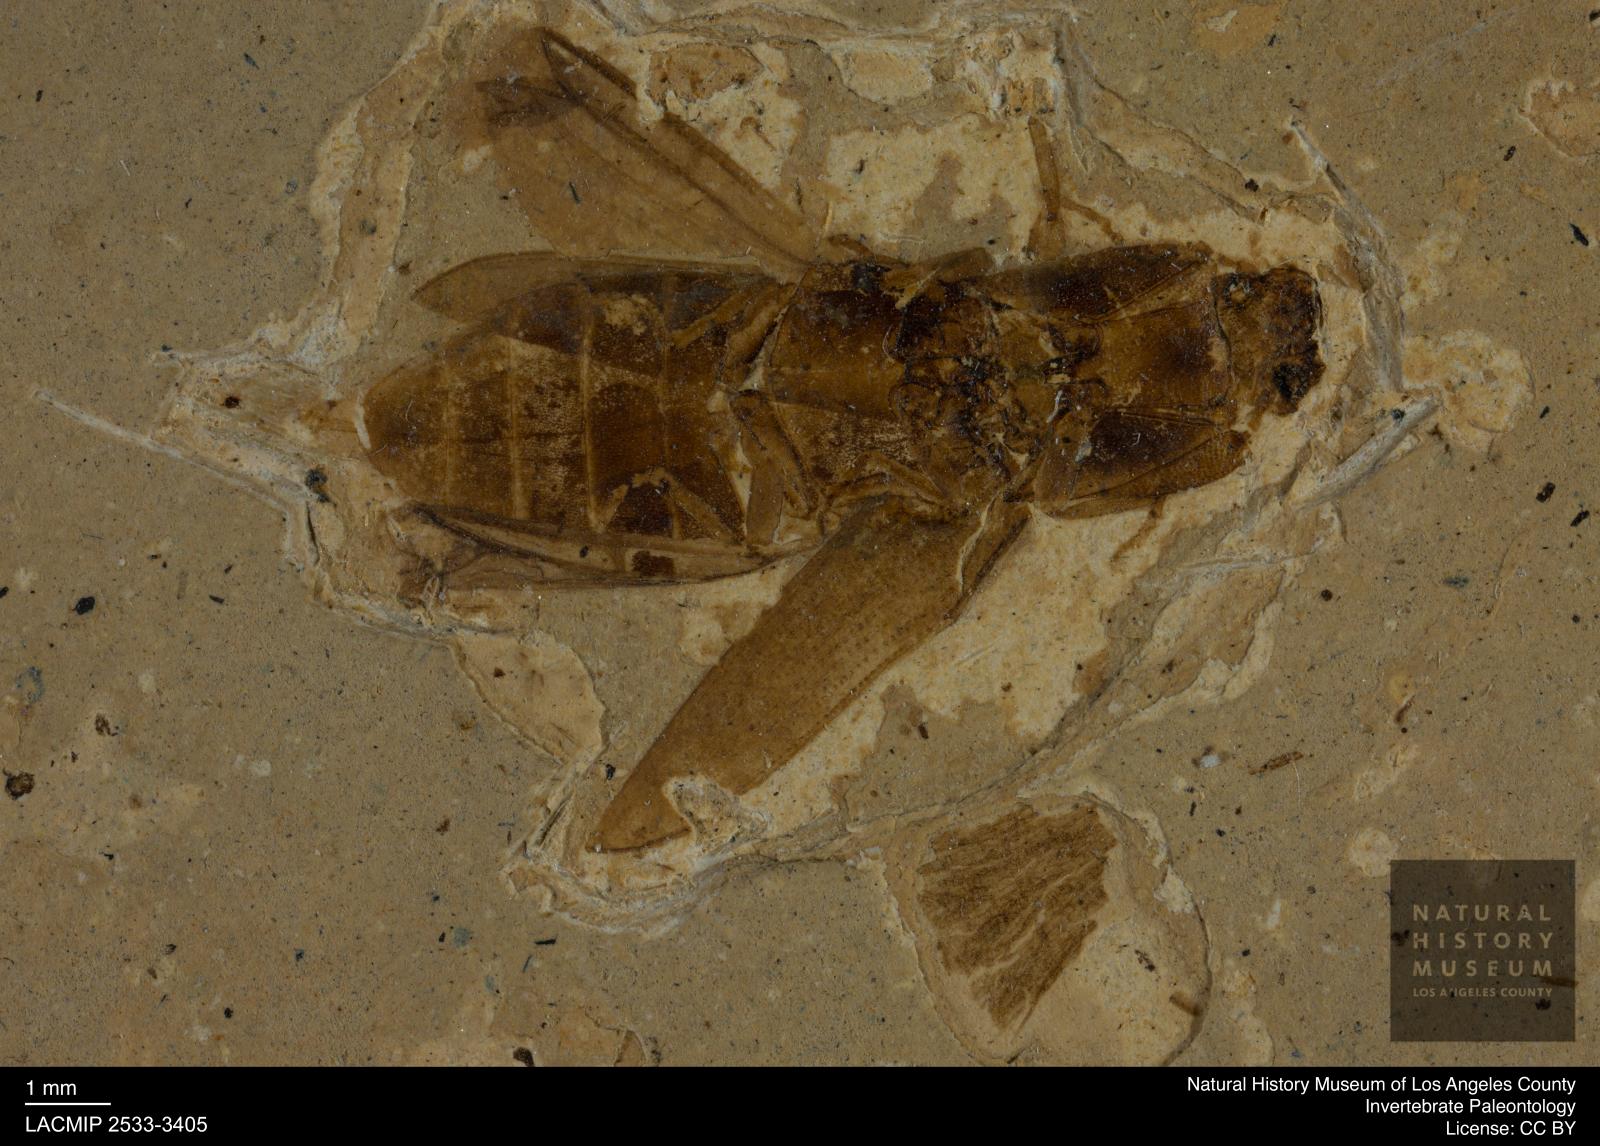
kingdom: Animalia
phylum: Arthropoda
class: Insecta
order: Coleoptera
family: Elateridae
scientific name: Elateridae
